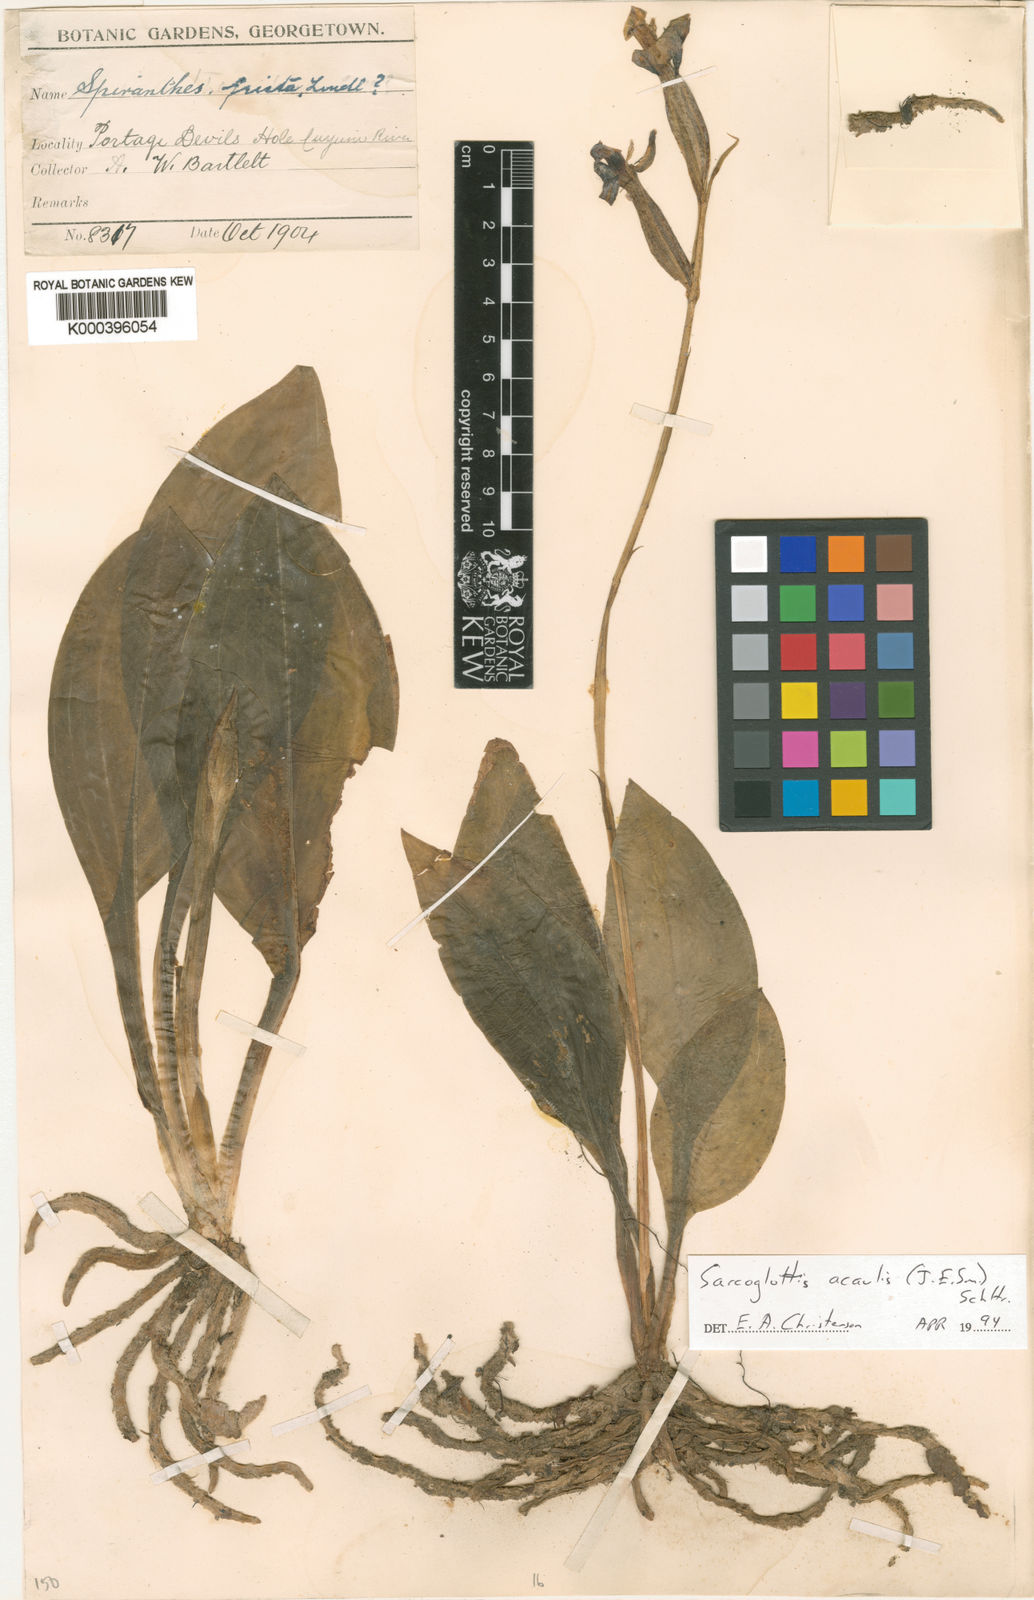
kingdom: Plantae
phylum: Tracheophyta
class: Liliopsida
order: Asparagales
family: Orchidaceae
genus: Sarcoglottis
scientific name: Sarcoglottis acaulis
